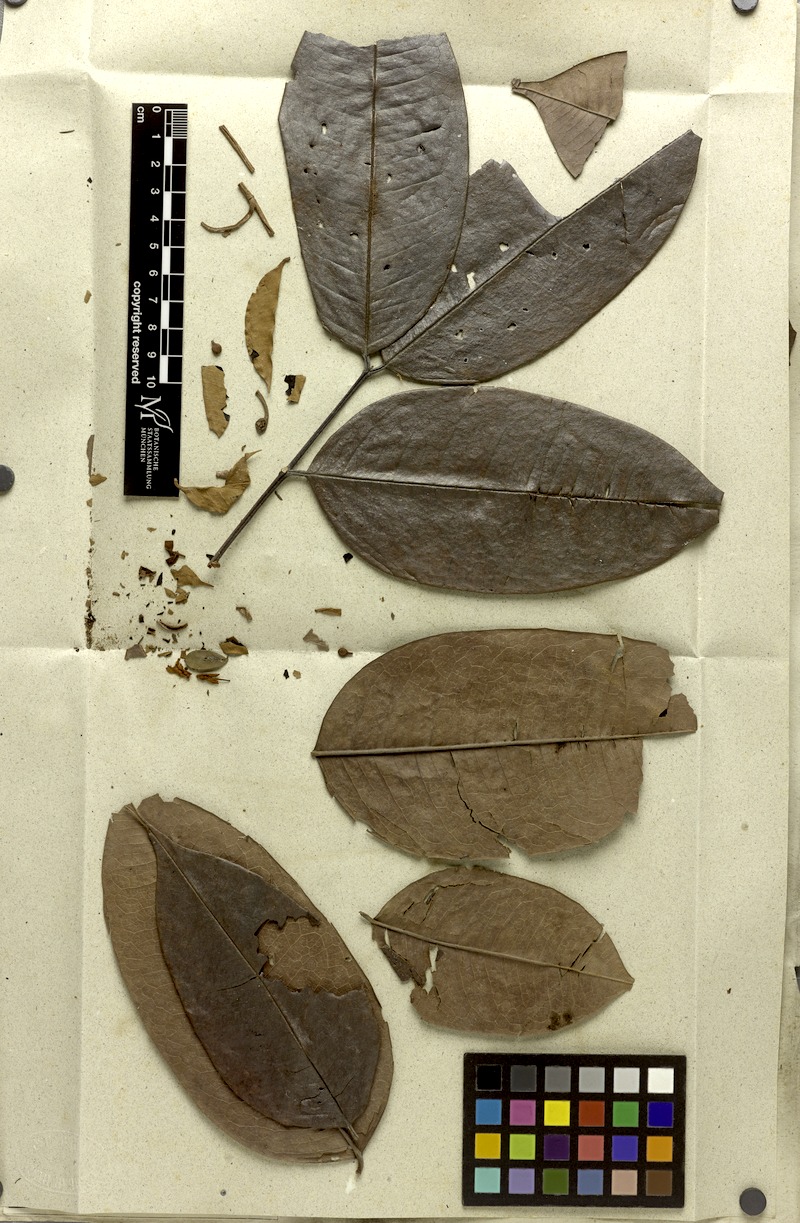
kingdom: Plantae
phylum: Tracheophyta
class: Magnoliopsida
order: Fabales
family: Fabaceae
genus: Moldenhawera
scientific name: Moldenhawera floribunda
